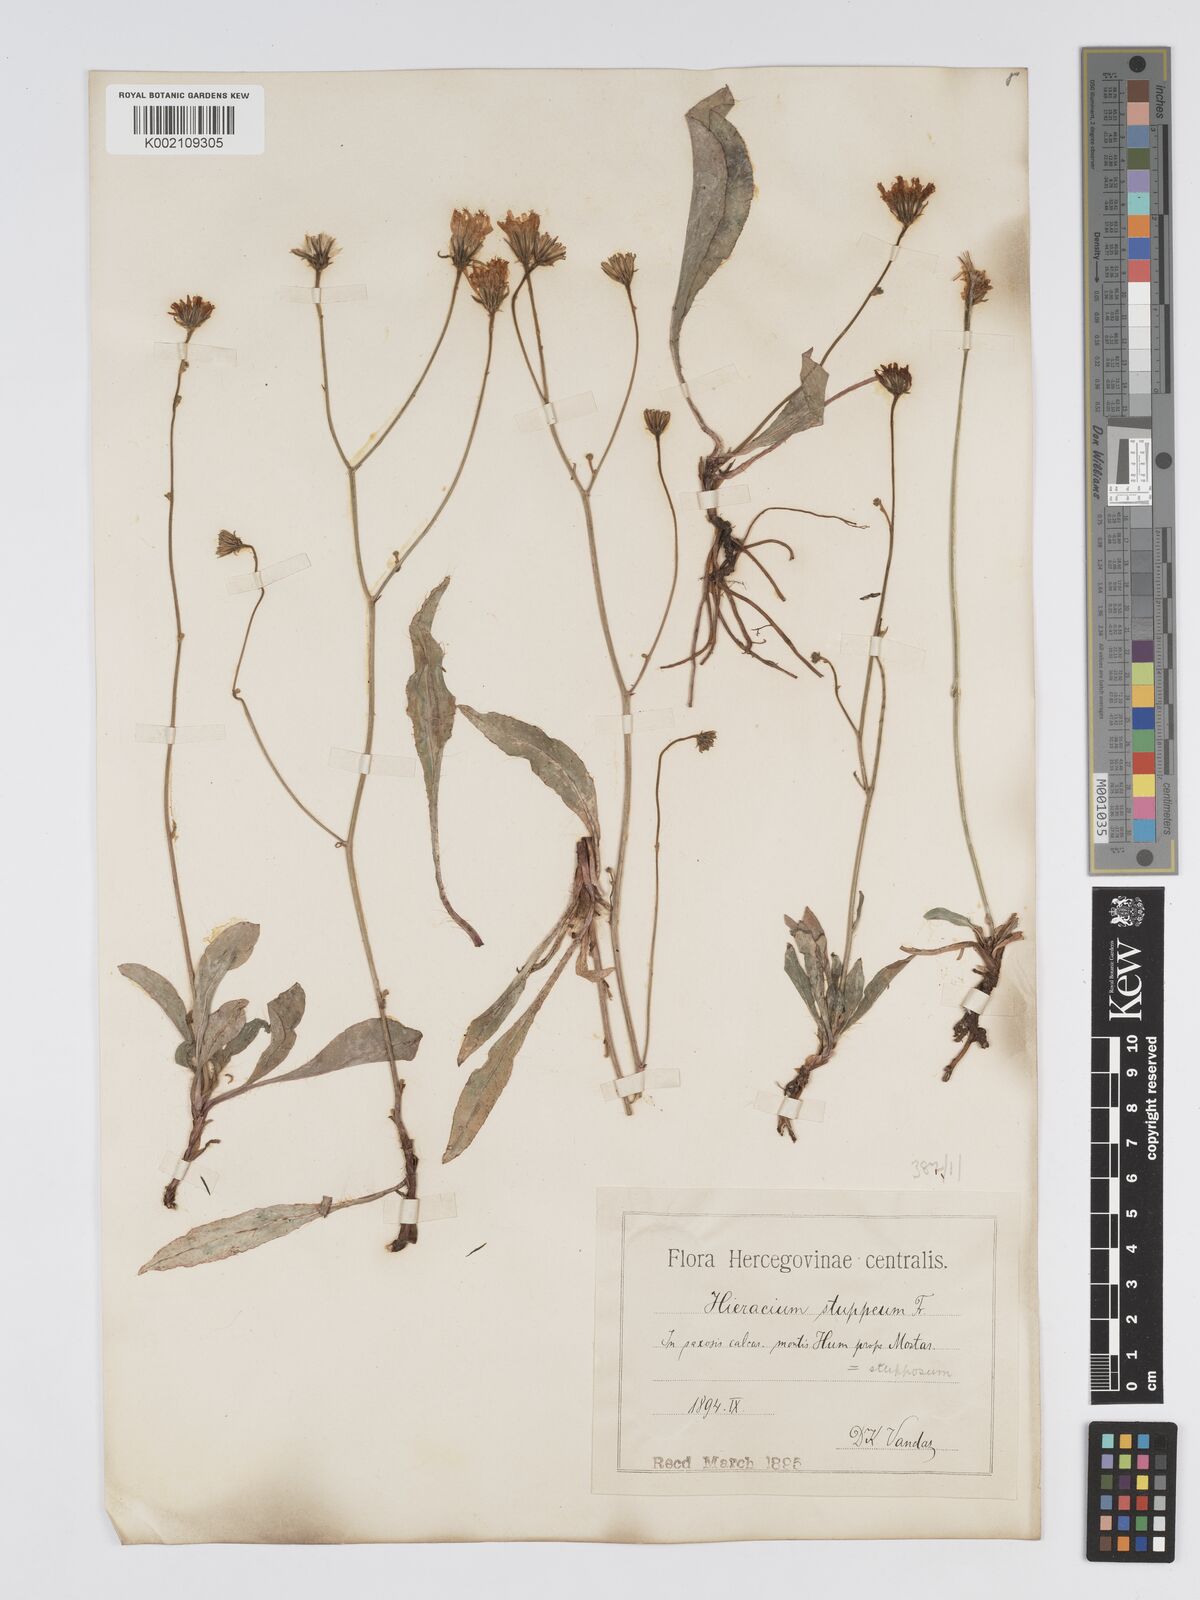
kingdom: Plantae
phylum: Tracheophyta
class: Magnoliopsida
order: Asterales
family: Asteraceae
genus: Hieracium
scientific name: Hieracium heterogynum
